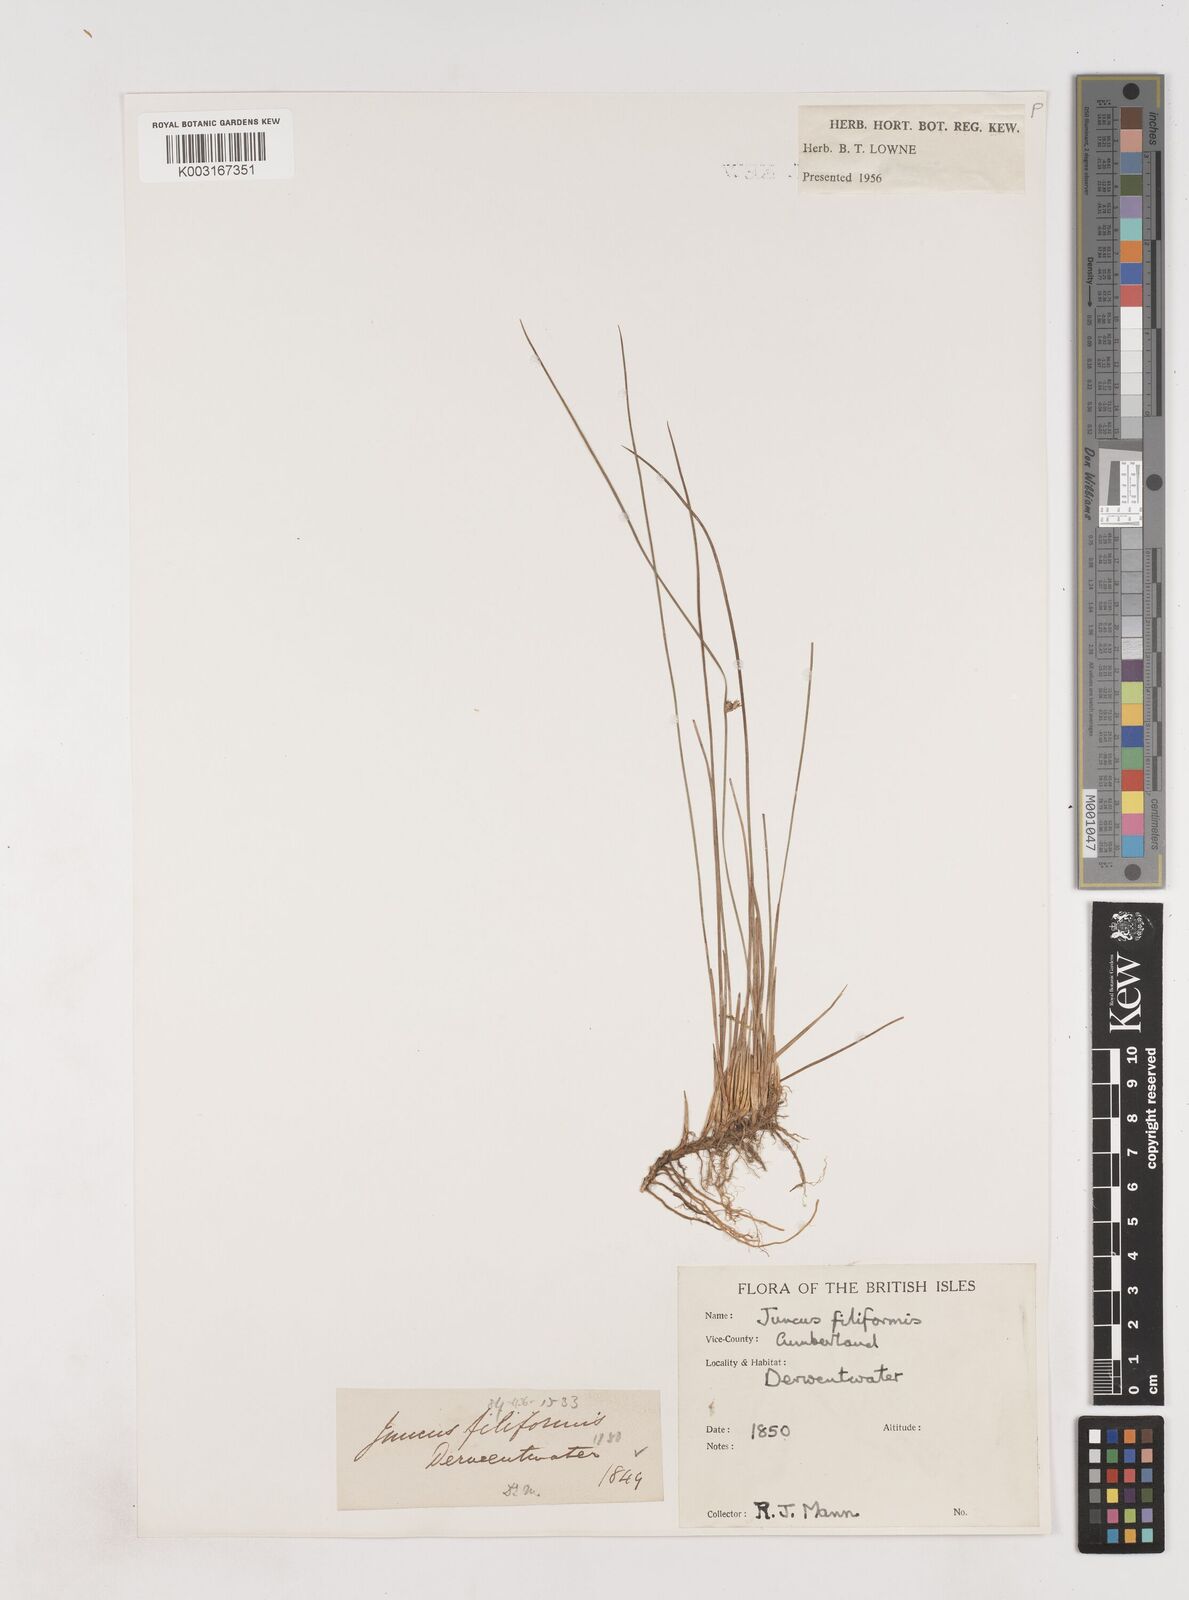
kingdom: Plantae
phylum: Tracheophyta
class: Liliopsida
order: Poales
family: Juncaceae
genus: Juncus
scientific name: Juncus filiformis
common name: Thread rush
